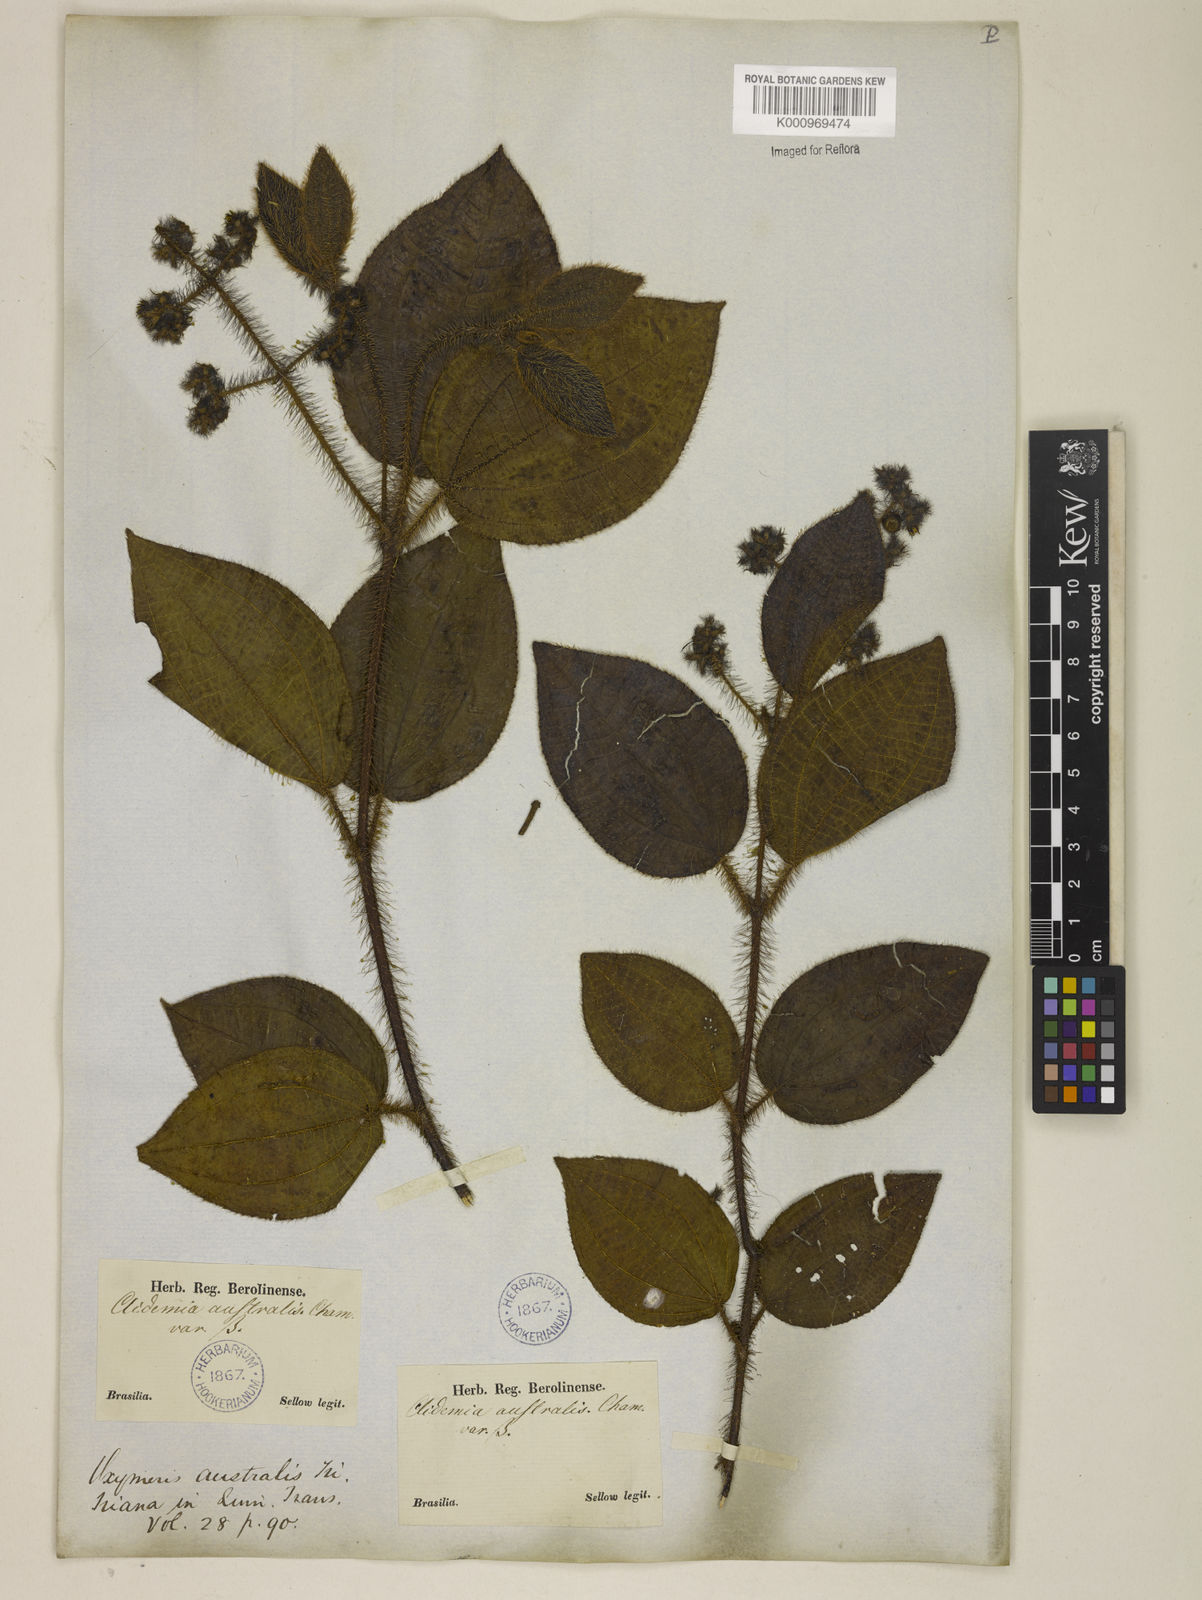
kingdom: Plantae
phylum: Tracheophyta
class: Magnoliopsida
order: Myrtales
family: Melastomataceae
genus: Miconia
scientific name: Miconia australis
